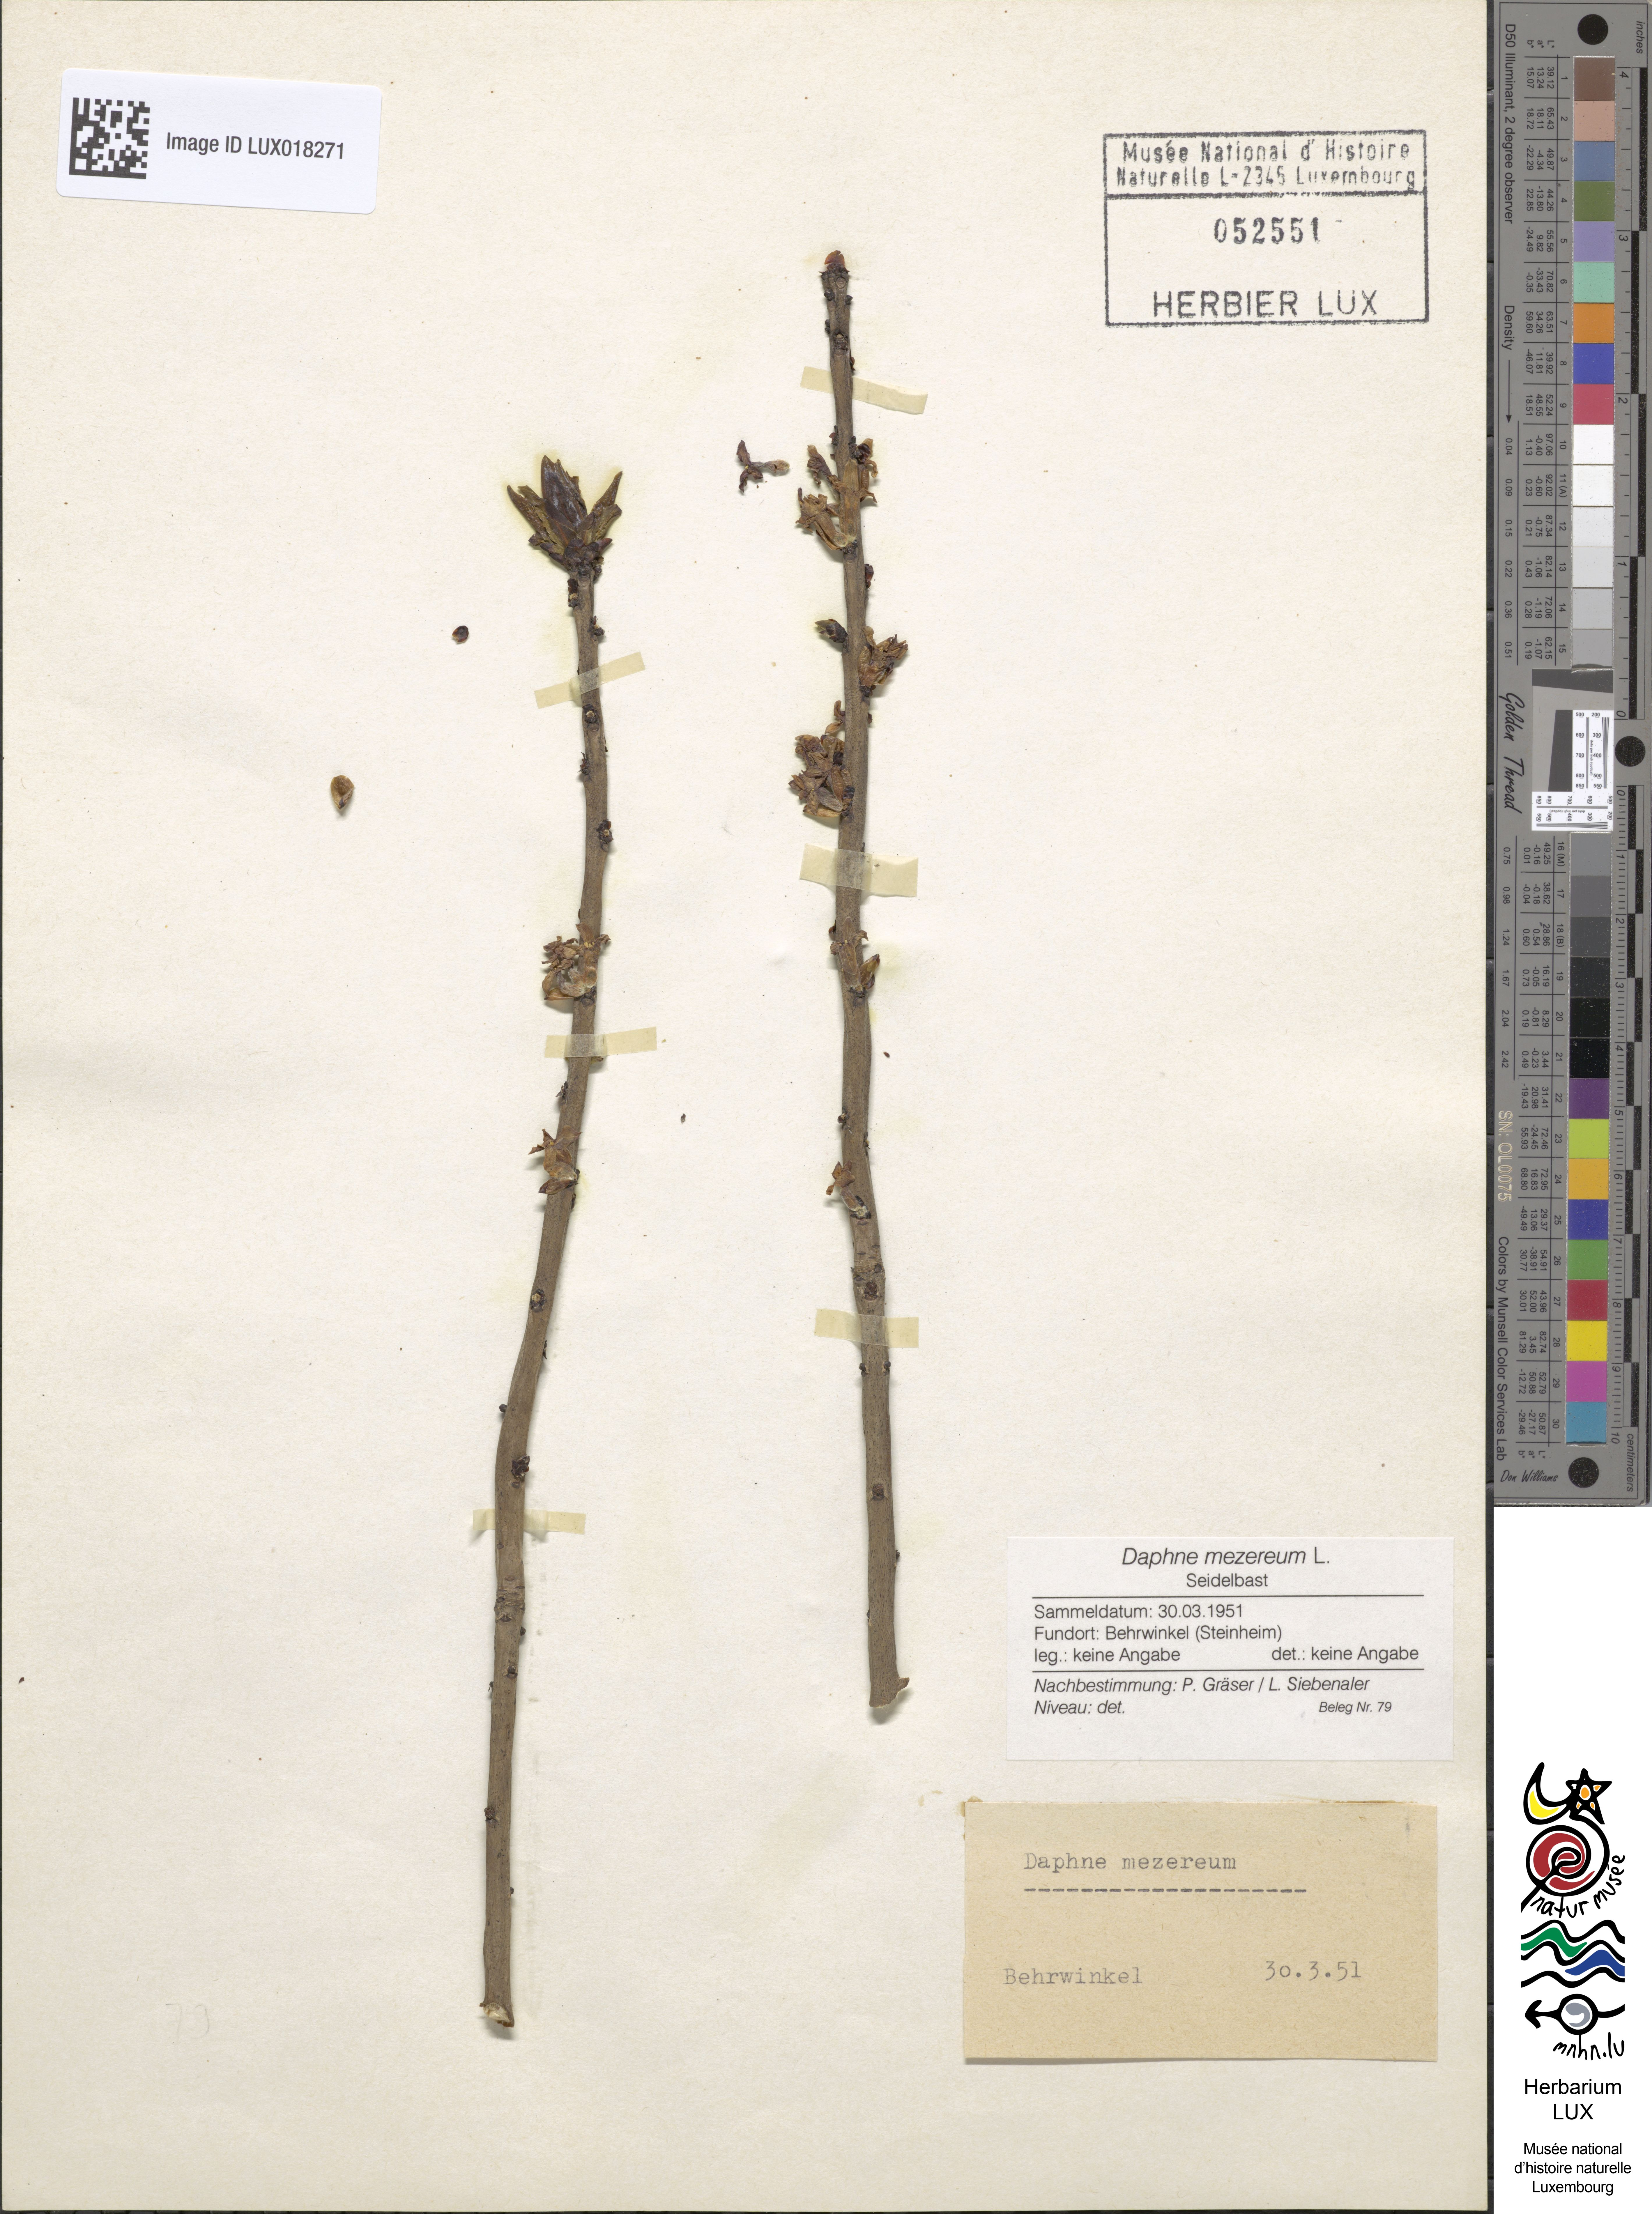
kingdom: Plantae
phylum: Tracheophyta
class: Magnoliopsida
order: Malvales
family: Thymelaeaceae
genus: Daphne
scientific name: Daphne mezereum
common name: Mezereon
